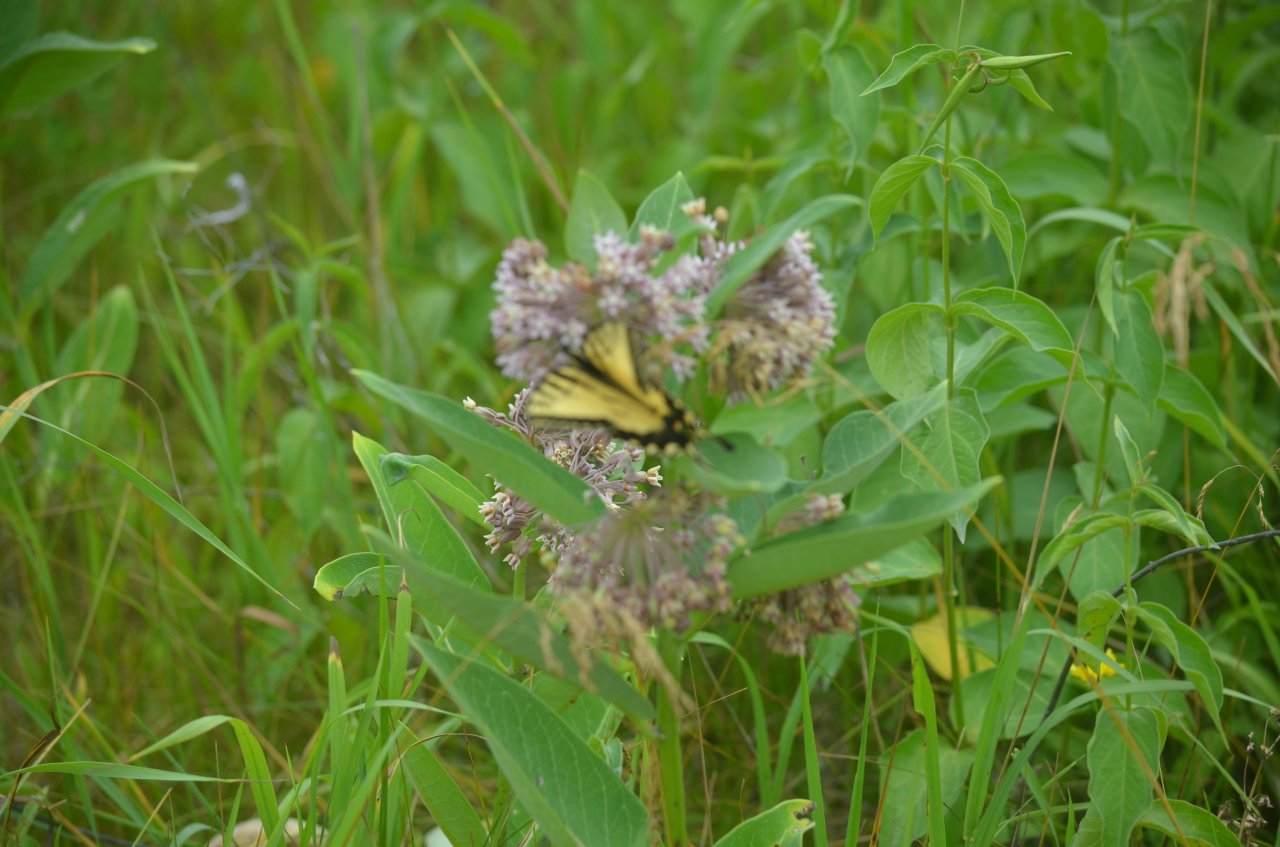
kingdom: Animalia
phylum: Arthropoda
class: Insecta
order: Lepidoptera
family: Hesperiidae
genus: Atrytone
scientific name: Atrytone delaware
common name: Delaware Skipper
